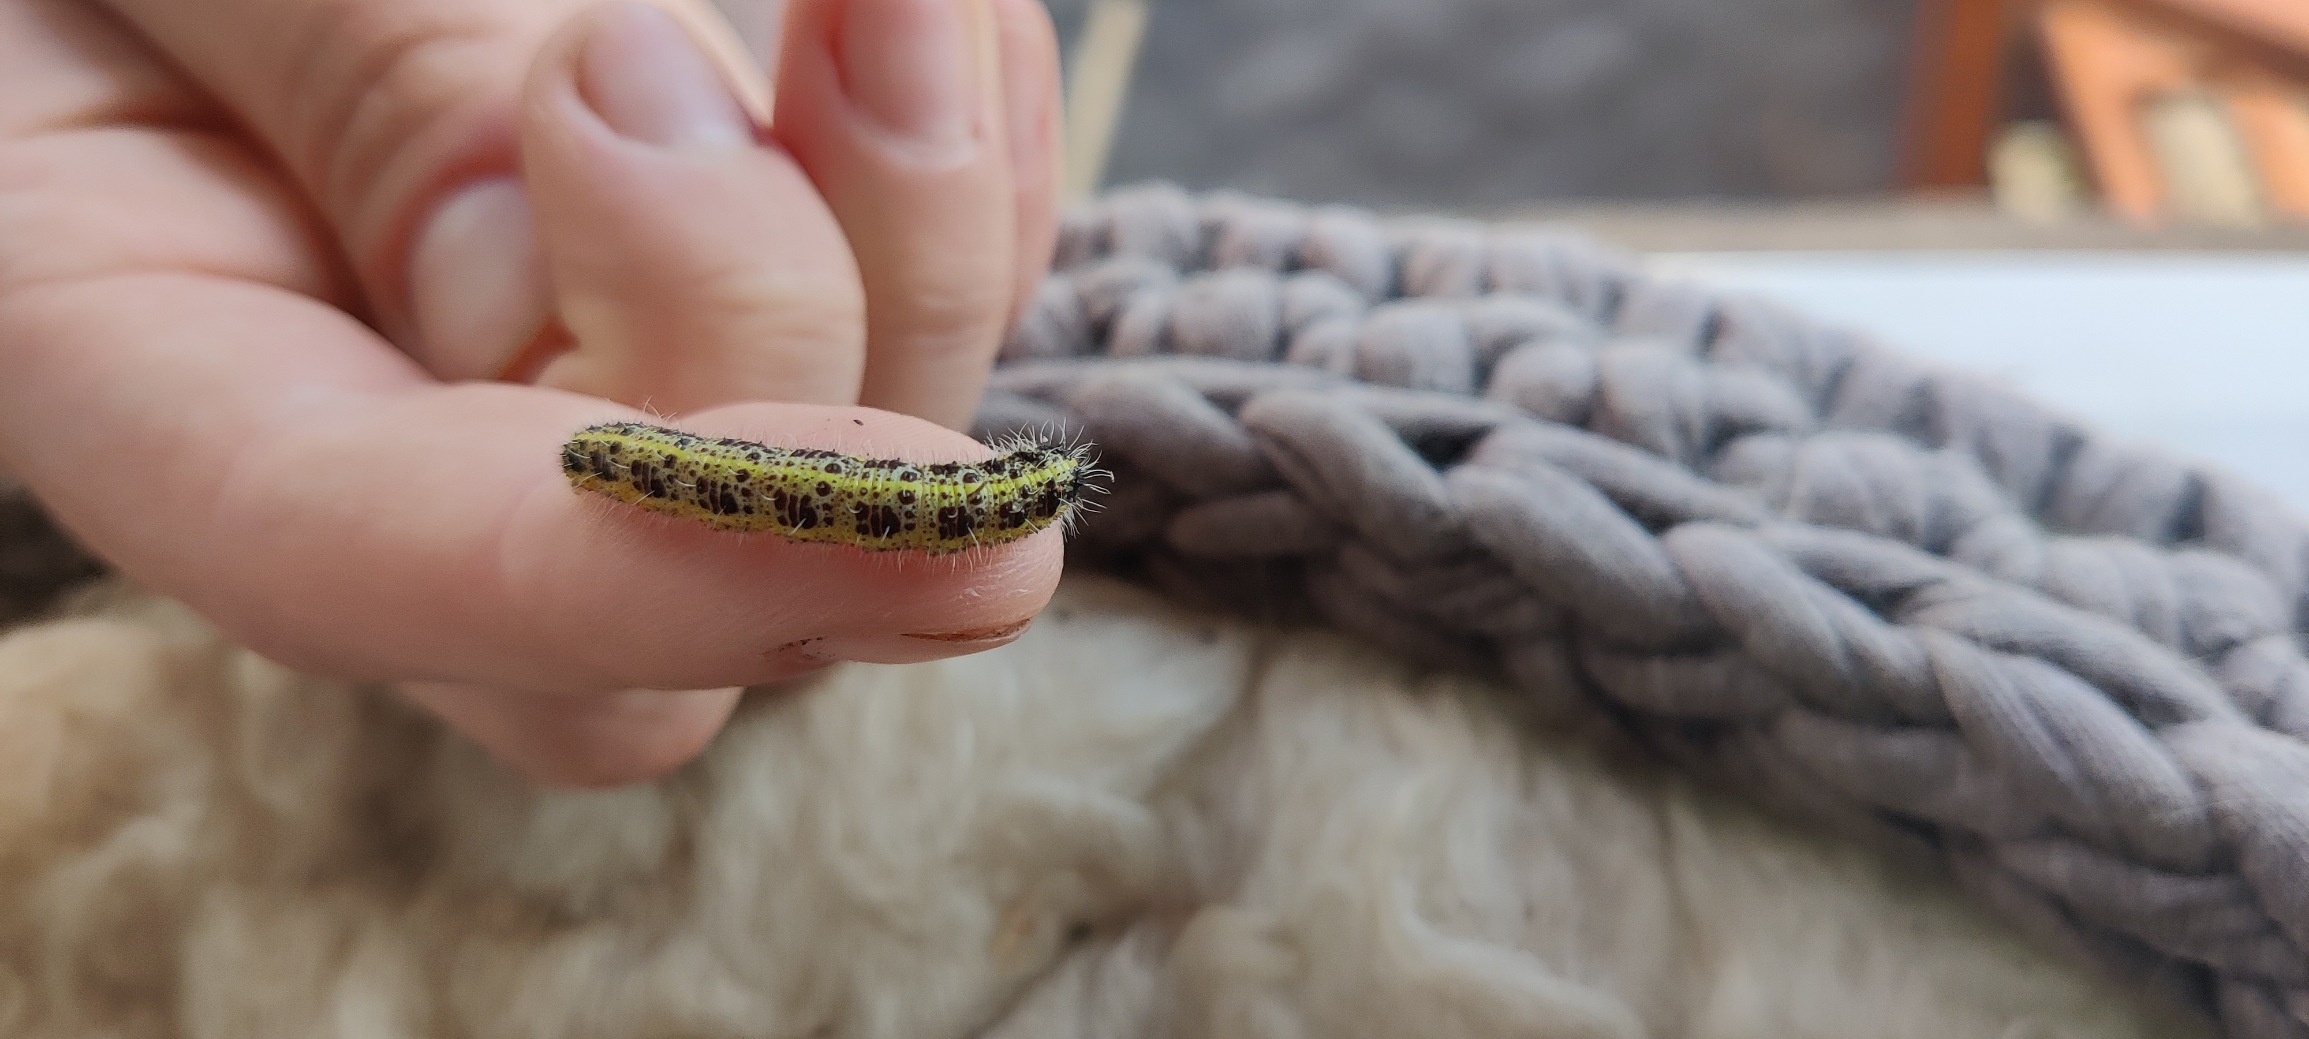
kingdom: Animalia
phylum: Arthropoda
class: Insecta
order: Lepidoptera
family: Pieridae
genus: Pieris
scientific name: Pieris brassicae
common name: Stor kålsommerfugl
